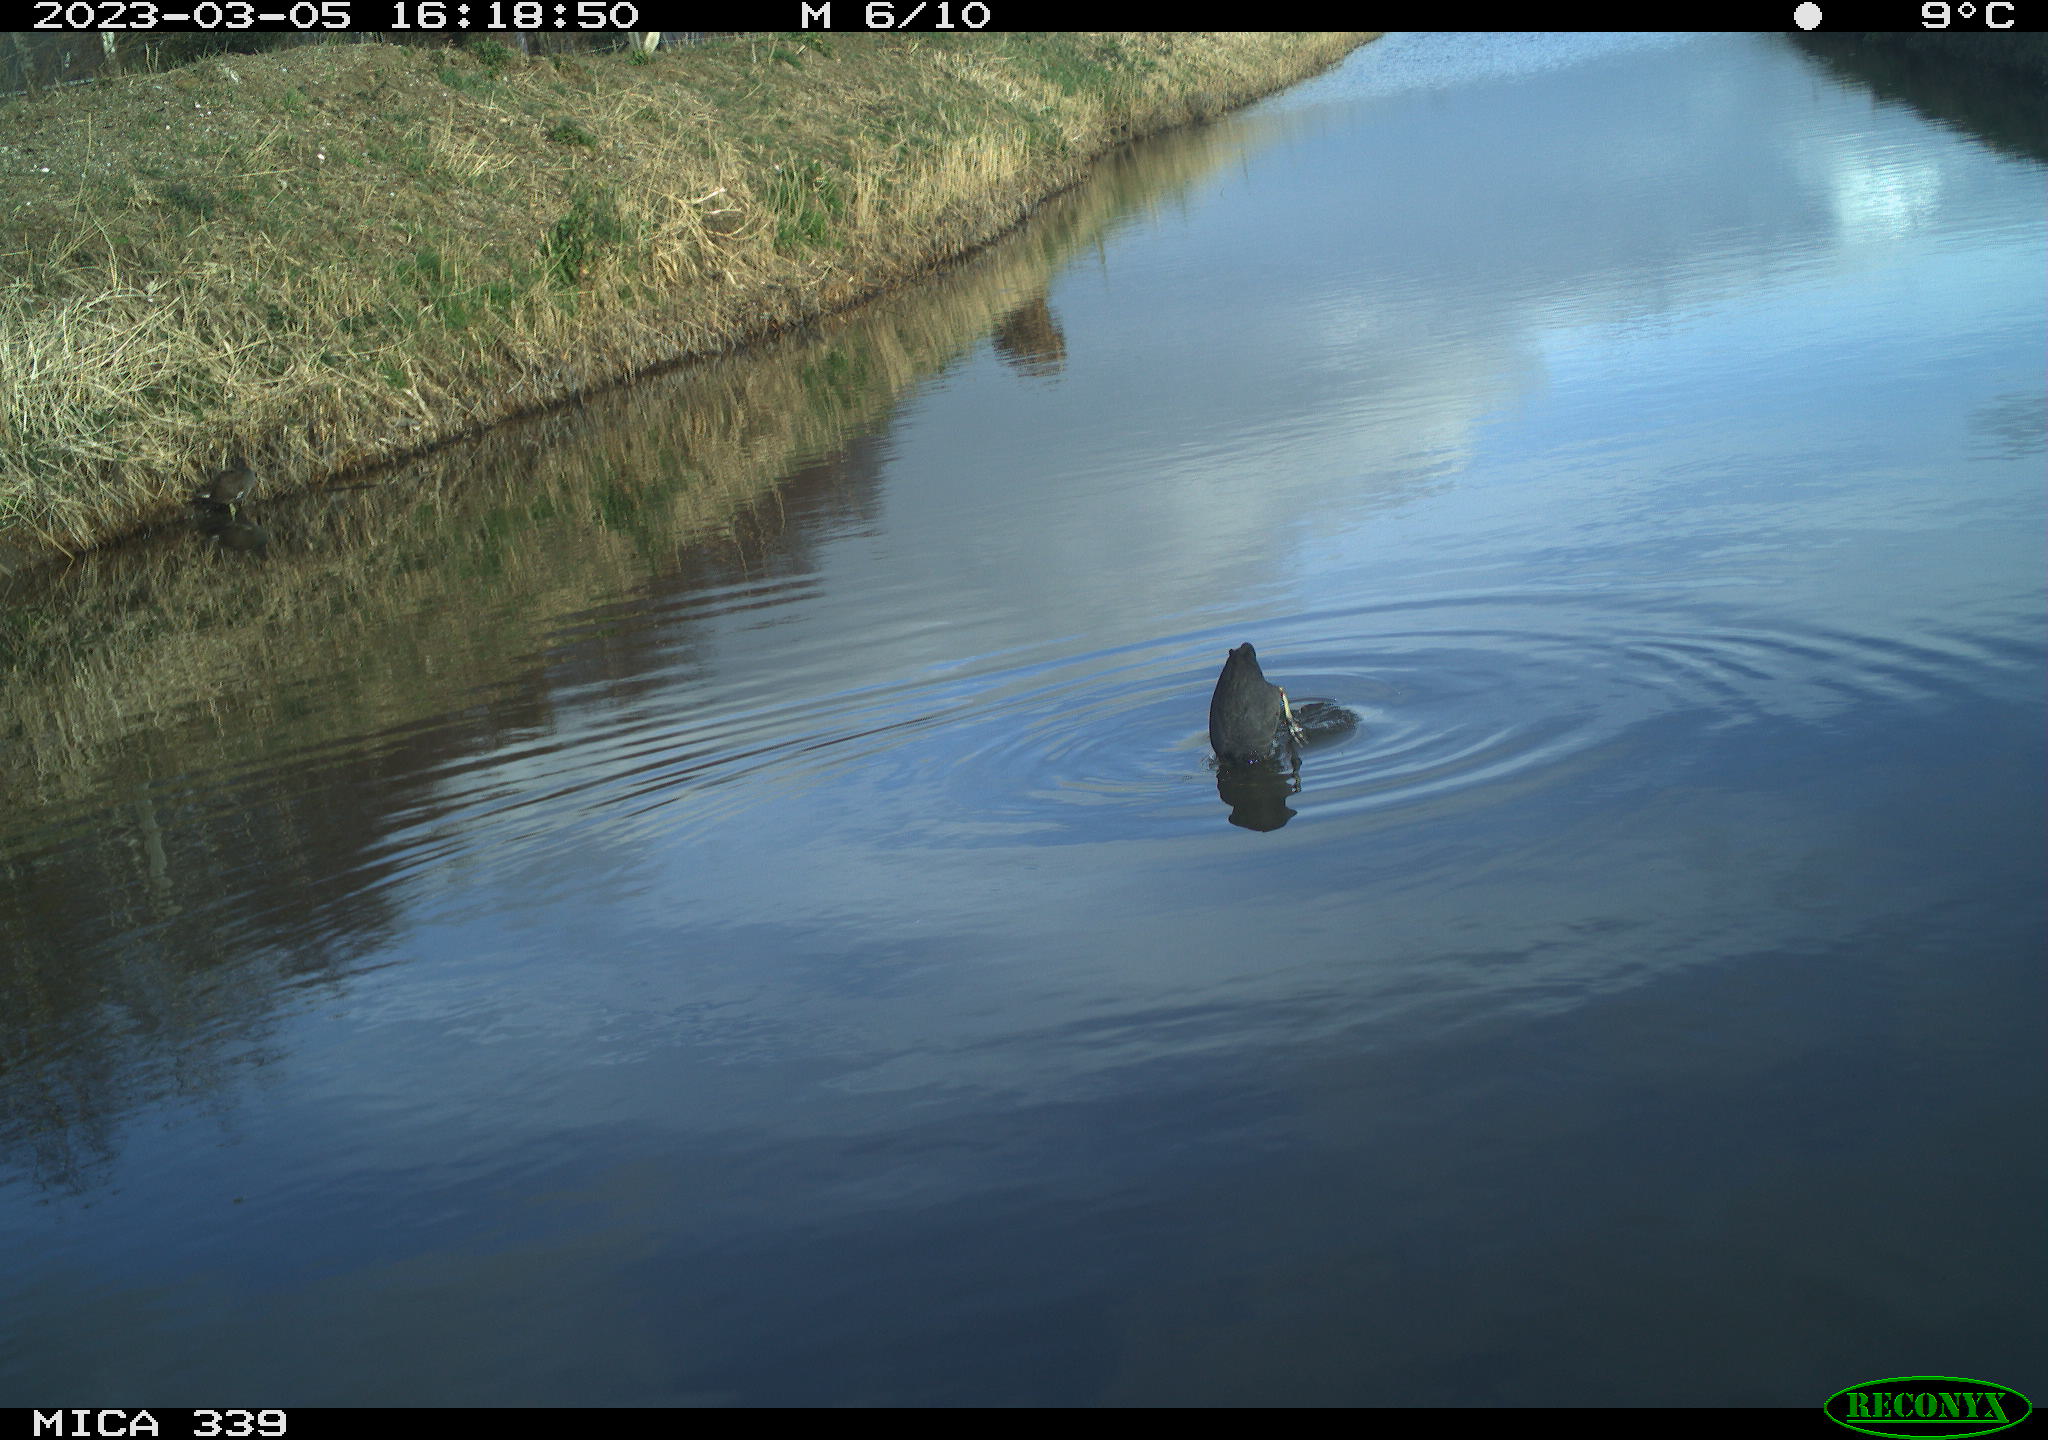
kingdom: Animalia
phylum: Chordata
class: Aves
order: Gruiformes
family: Rallidae
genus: Fulica
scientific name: Fulica atra
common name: Eurasian coot
